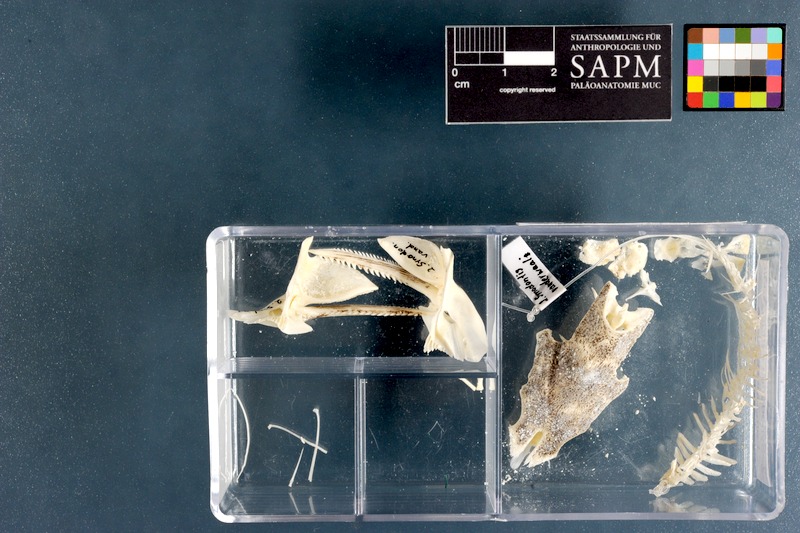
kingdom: Animalia
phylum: Chordata
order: Siluriformes
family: Mochokidae
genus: Synodontis
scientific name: Synodontis vanderwaali
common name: Finetooth squeaker
